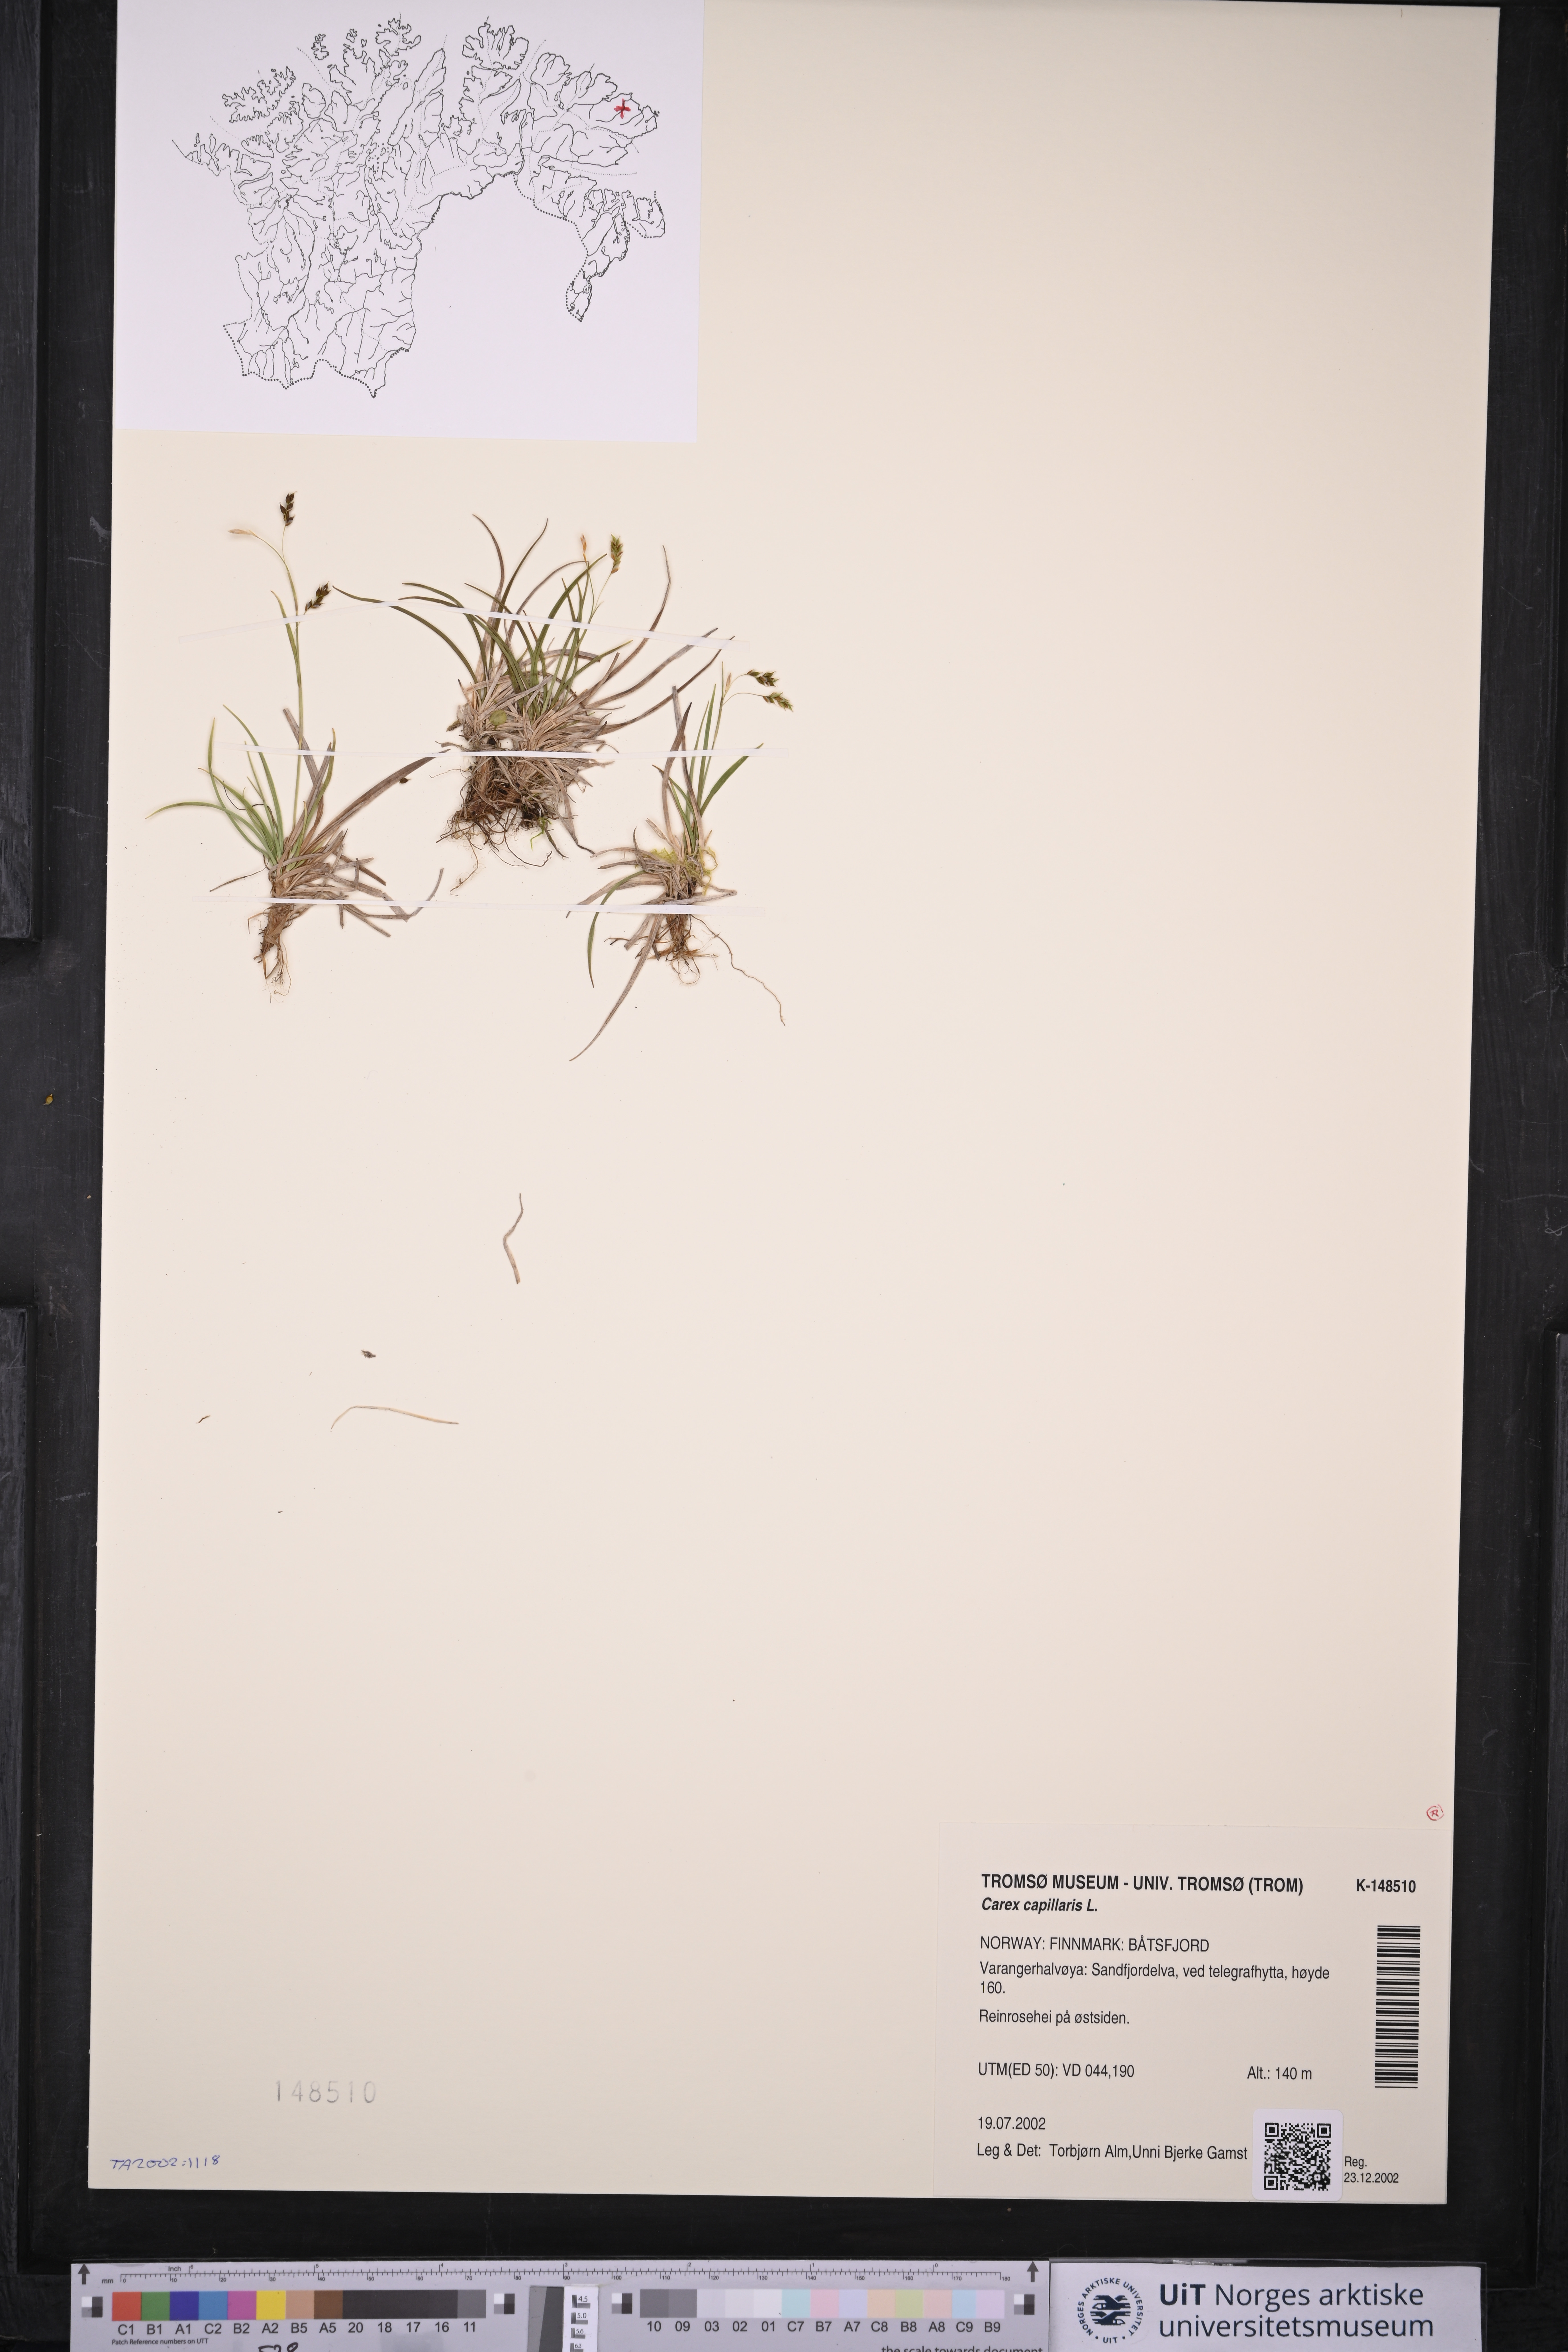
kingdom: Plantae
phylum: Tracheophyta
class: Liliopsida
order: Poales
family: Cyperaceae
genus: Carex
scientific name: Carex capillaris
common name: Hair sedge
